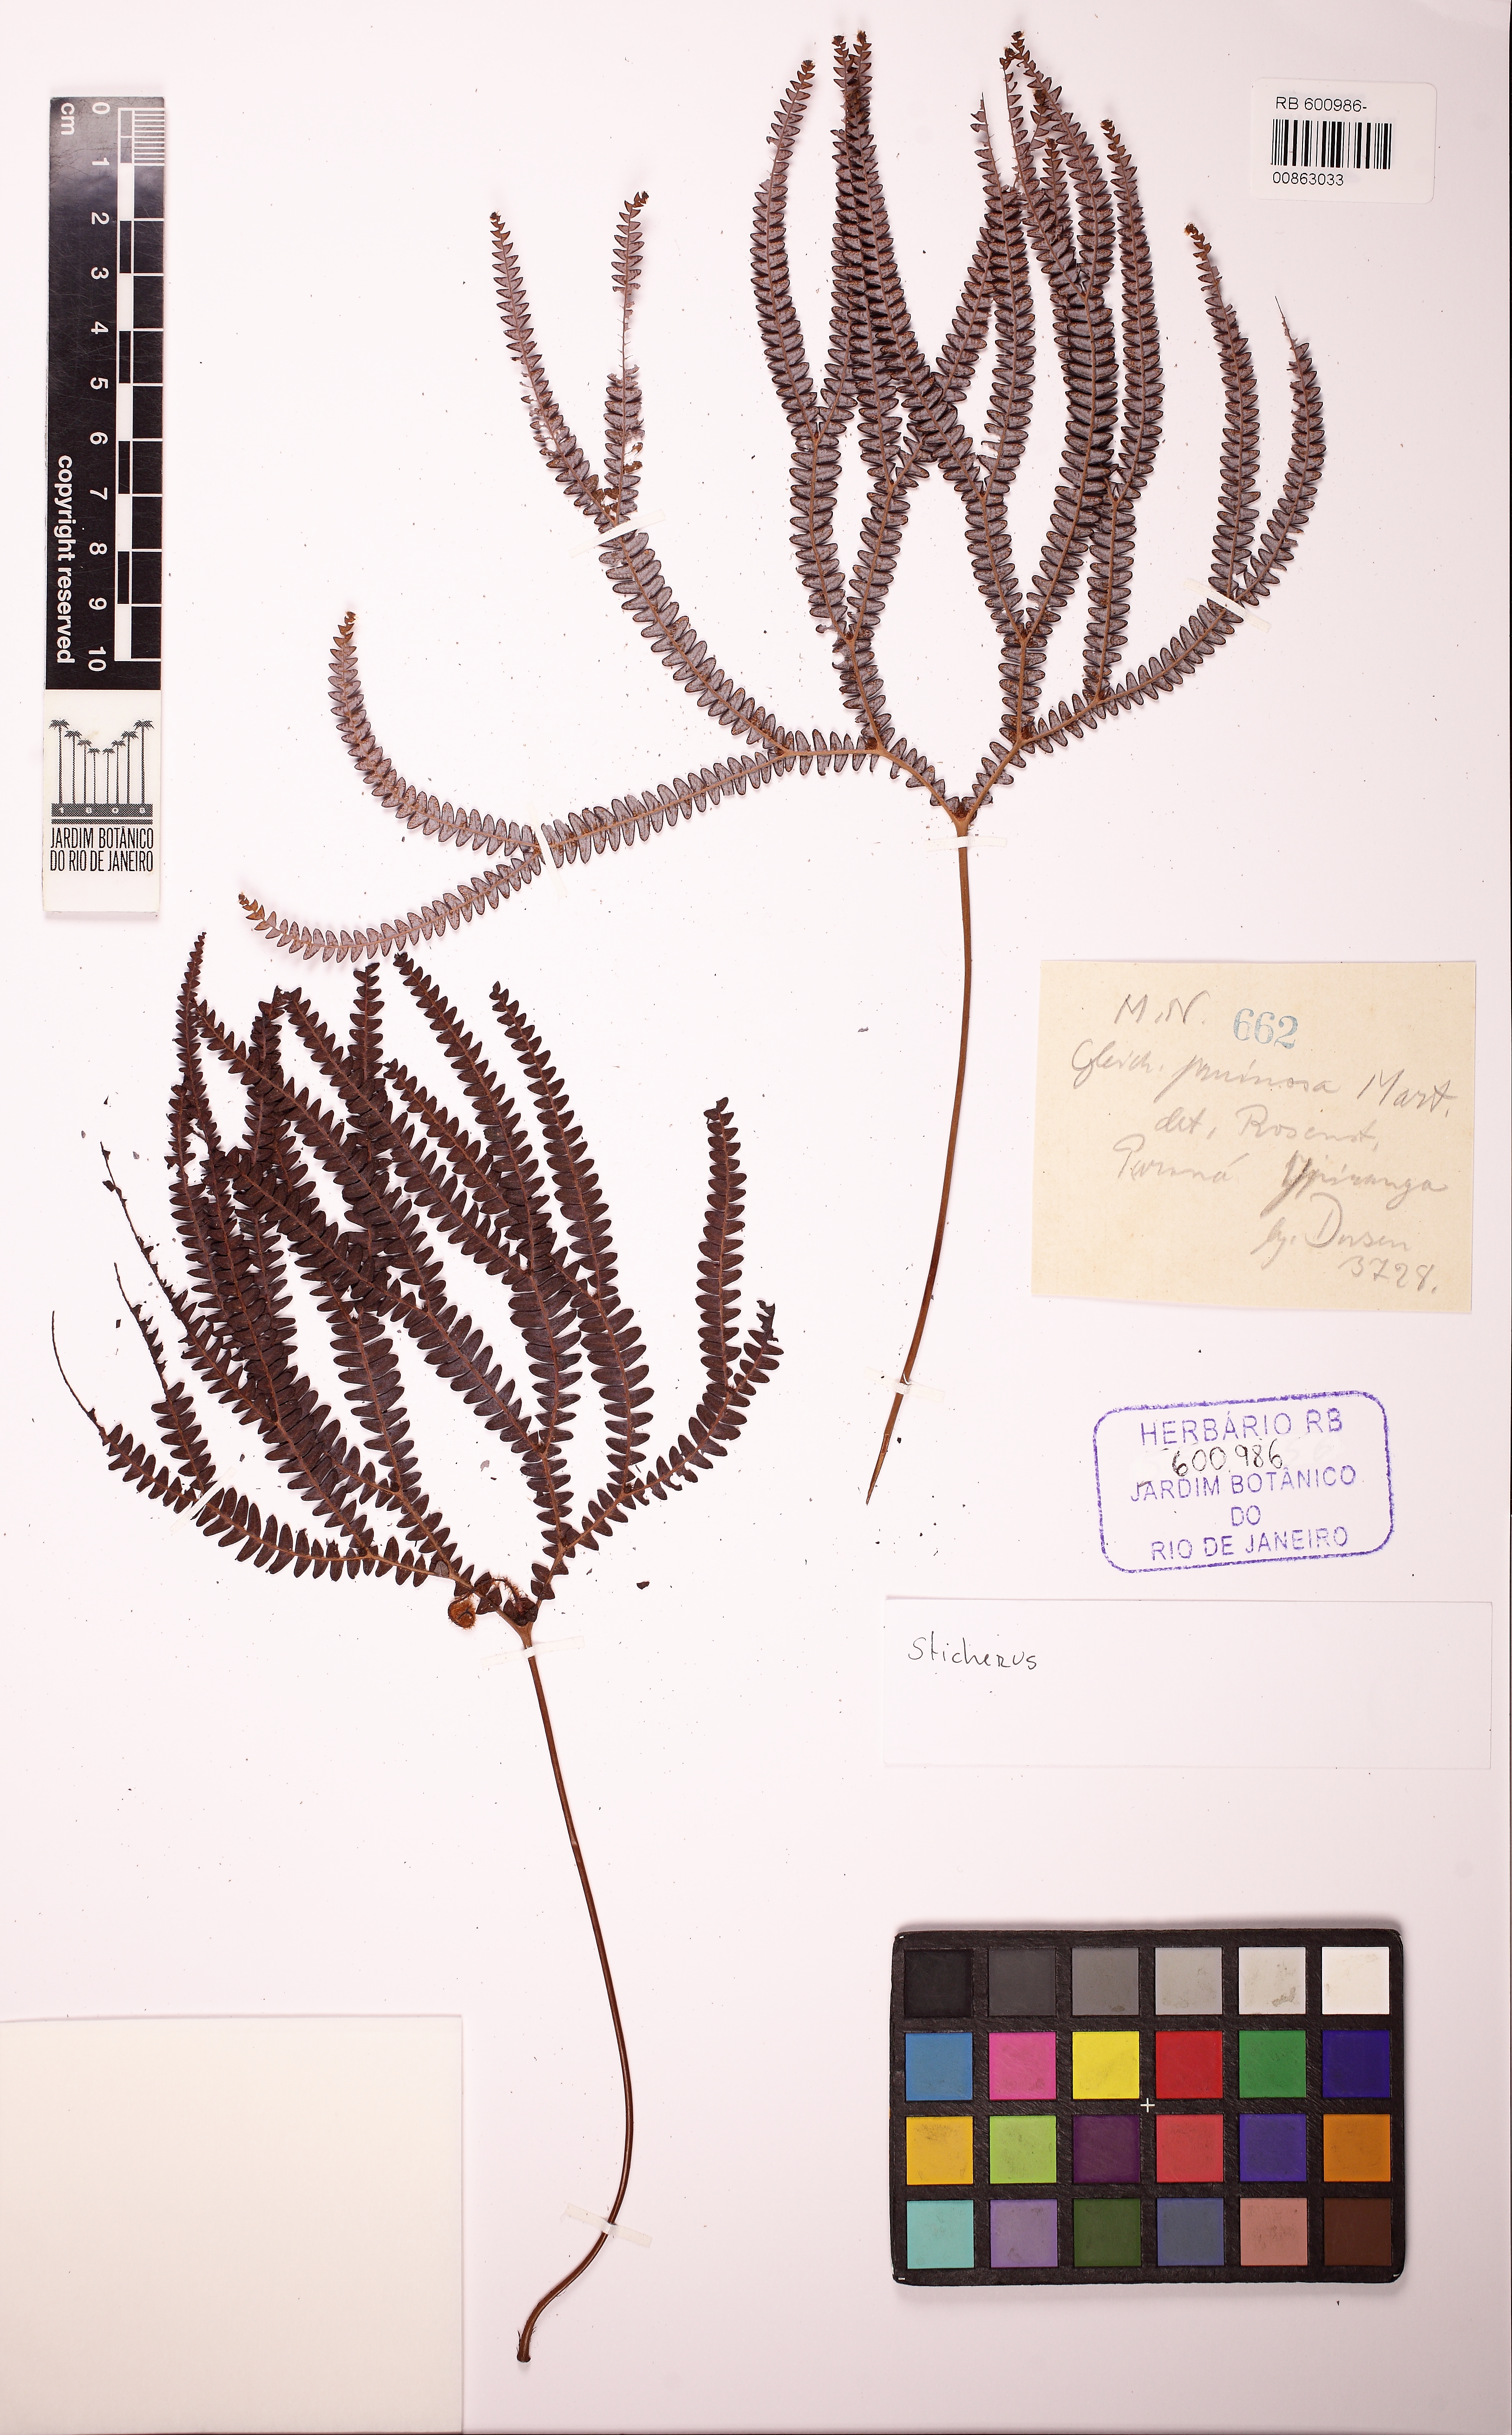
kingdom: Plantae
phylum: Tracheophyta
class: Polypodiopsida
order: Gleicheniales
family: Gleicheniaceae
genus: Sticherus
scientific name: Sticherus pruinosus
